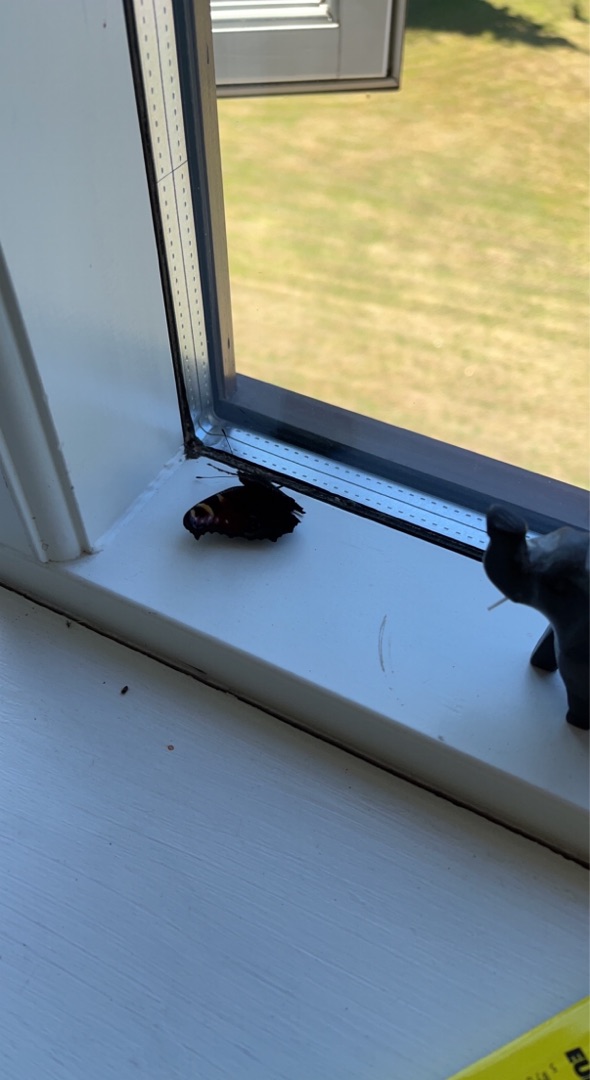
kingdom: Animalia
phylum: Arthropoda
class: Insecta
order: Lepidoptera
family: Nymphalidae
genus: Aglais
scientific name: Aglais io
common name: Dagpåfugleøje
